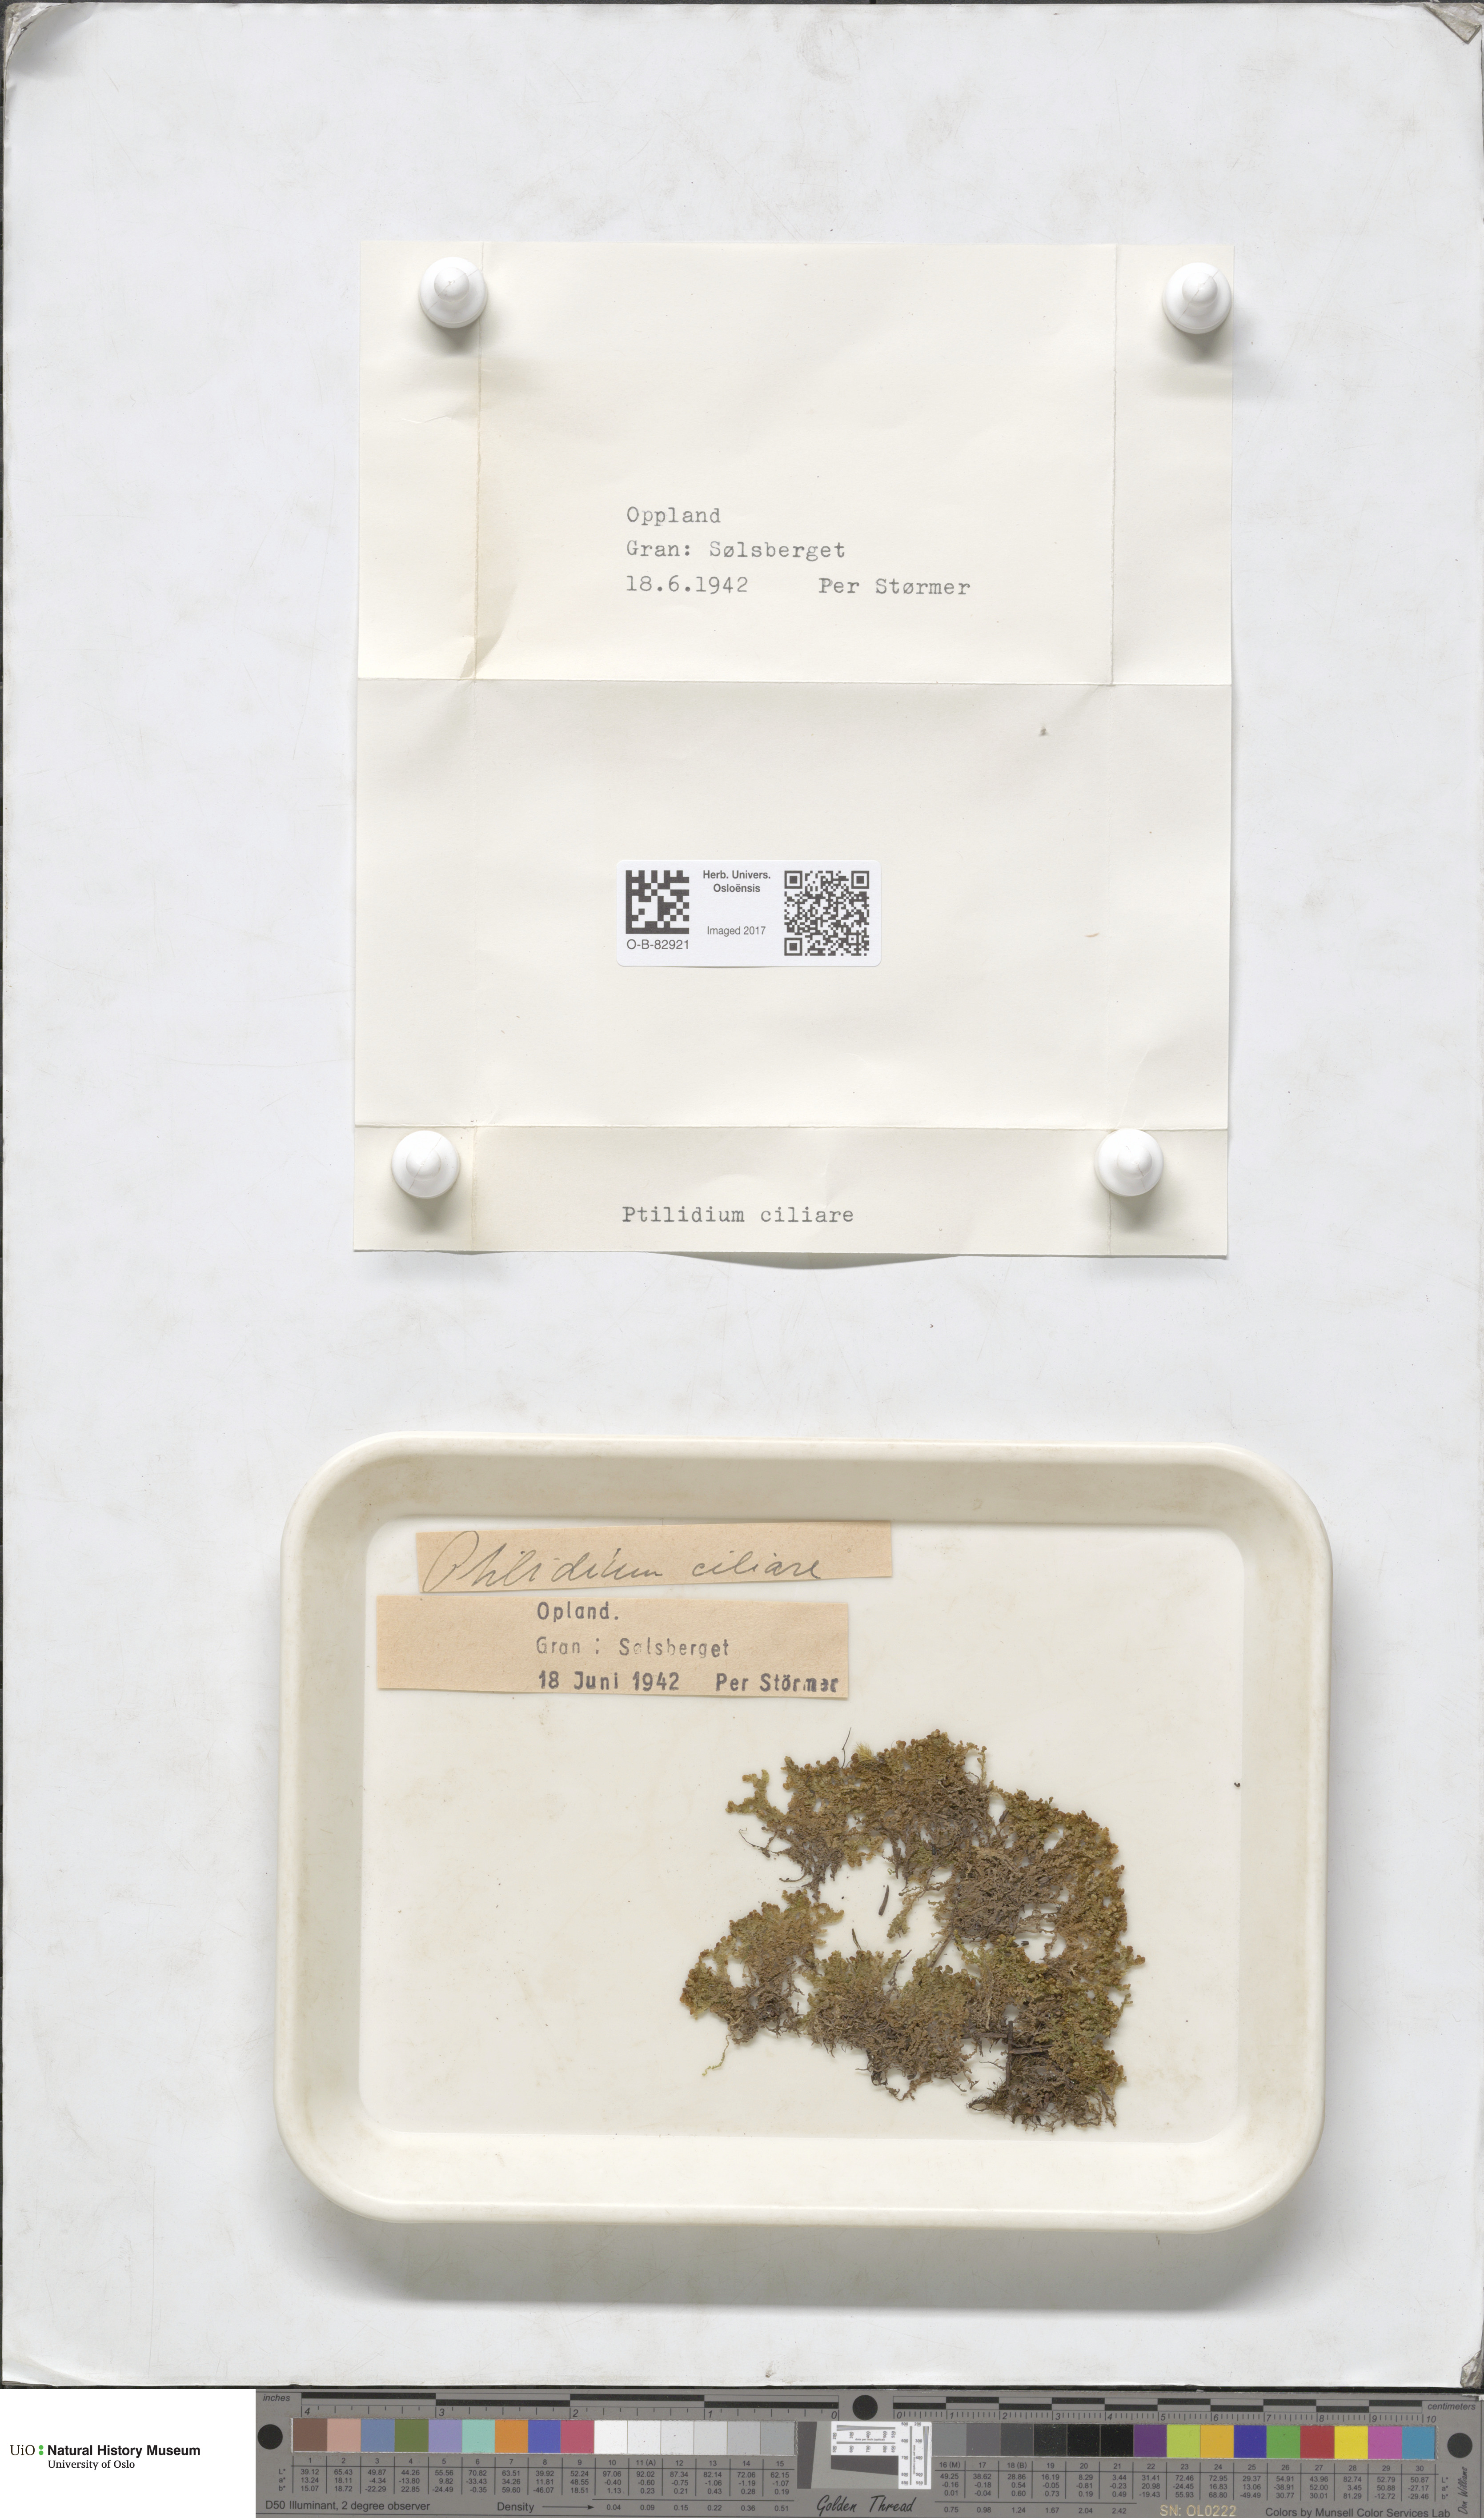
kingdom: Plantae
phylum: Marchantiophyta
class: Jungermanniopsida
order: Ptilidiales
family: Ptilidiaceae
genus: Ptilidium
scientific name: Ptilidium ciliare
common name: Ciliate fringewort
